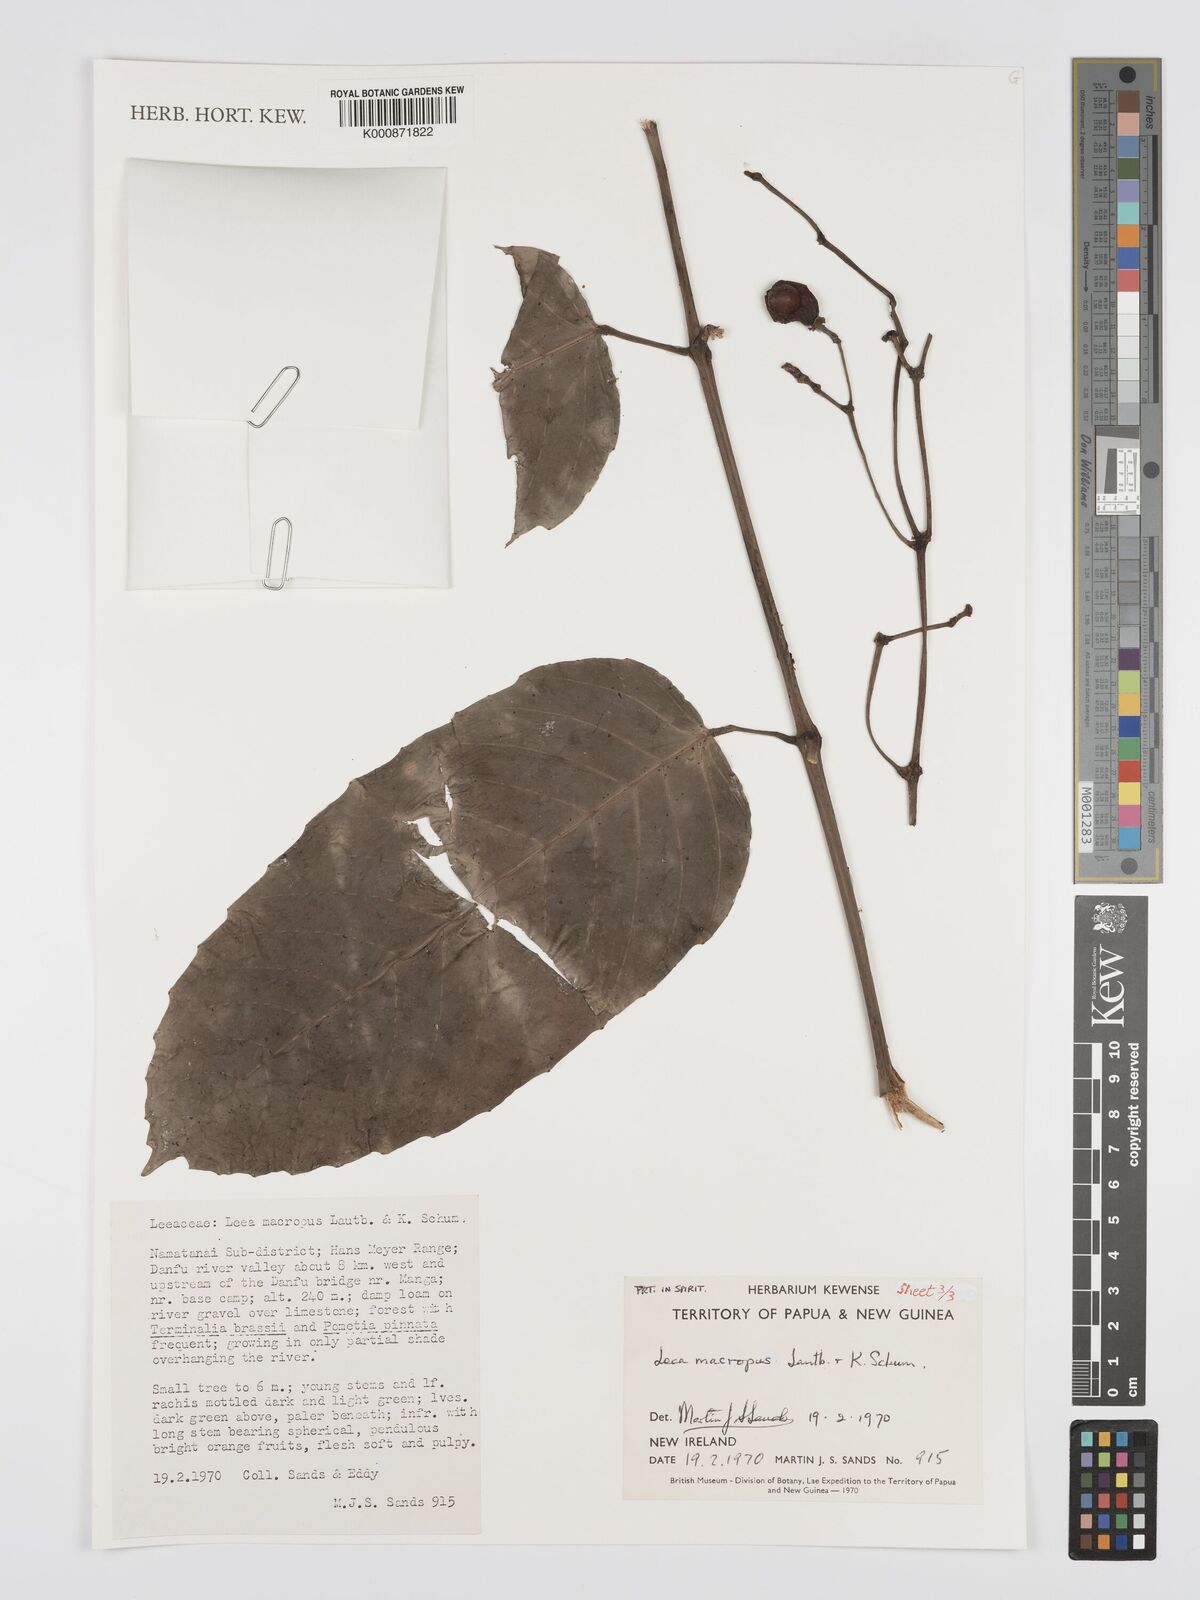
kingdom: Plantae
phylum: Tracheophyta
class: Magnoliopsida
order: Vitales
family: Vitaceae
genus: Leea
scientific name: Leea macropus
